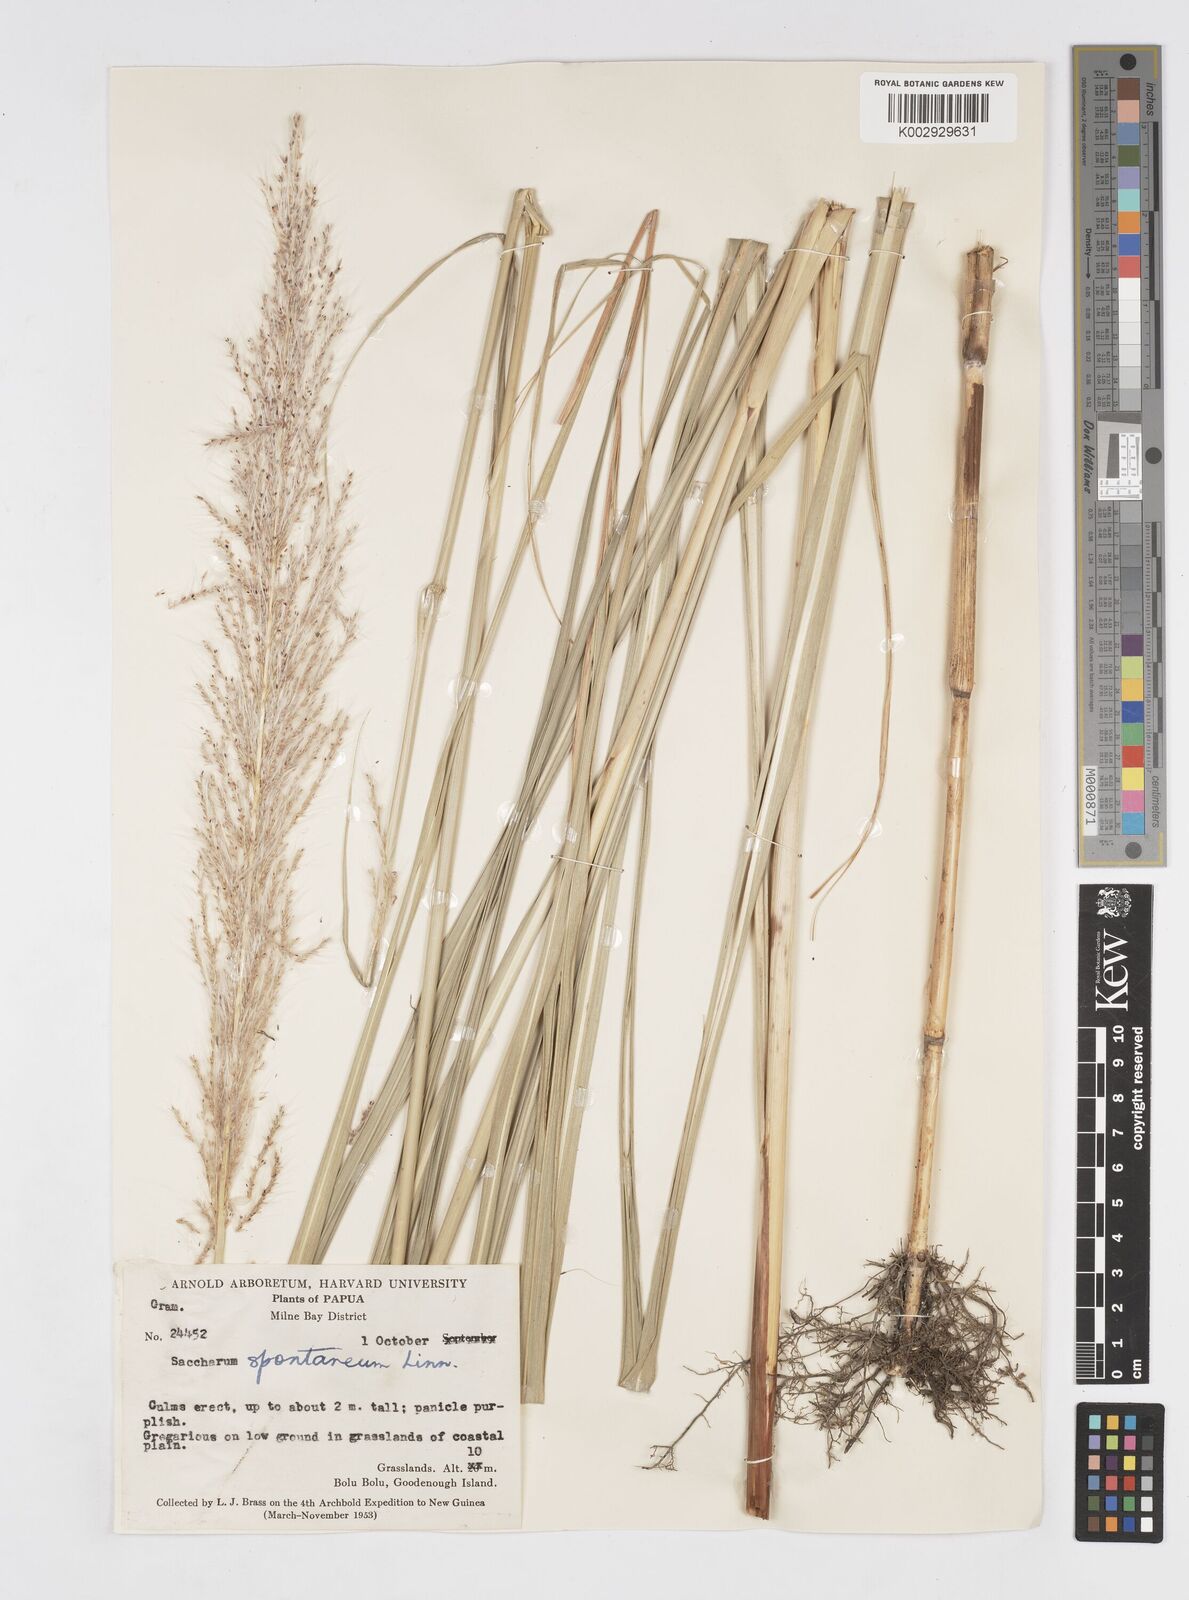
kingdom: Plantae
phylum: Tracheophyta
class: Liliopsida
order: Poales
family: Poaceae
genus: Saccharum
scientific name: Saccharum spontaneum
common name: Wild sugarcane
